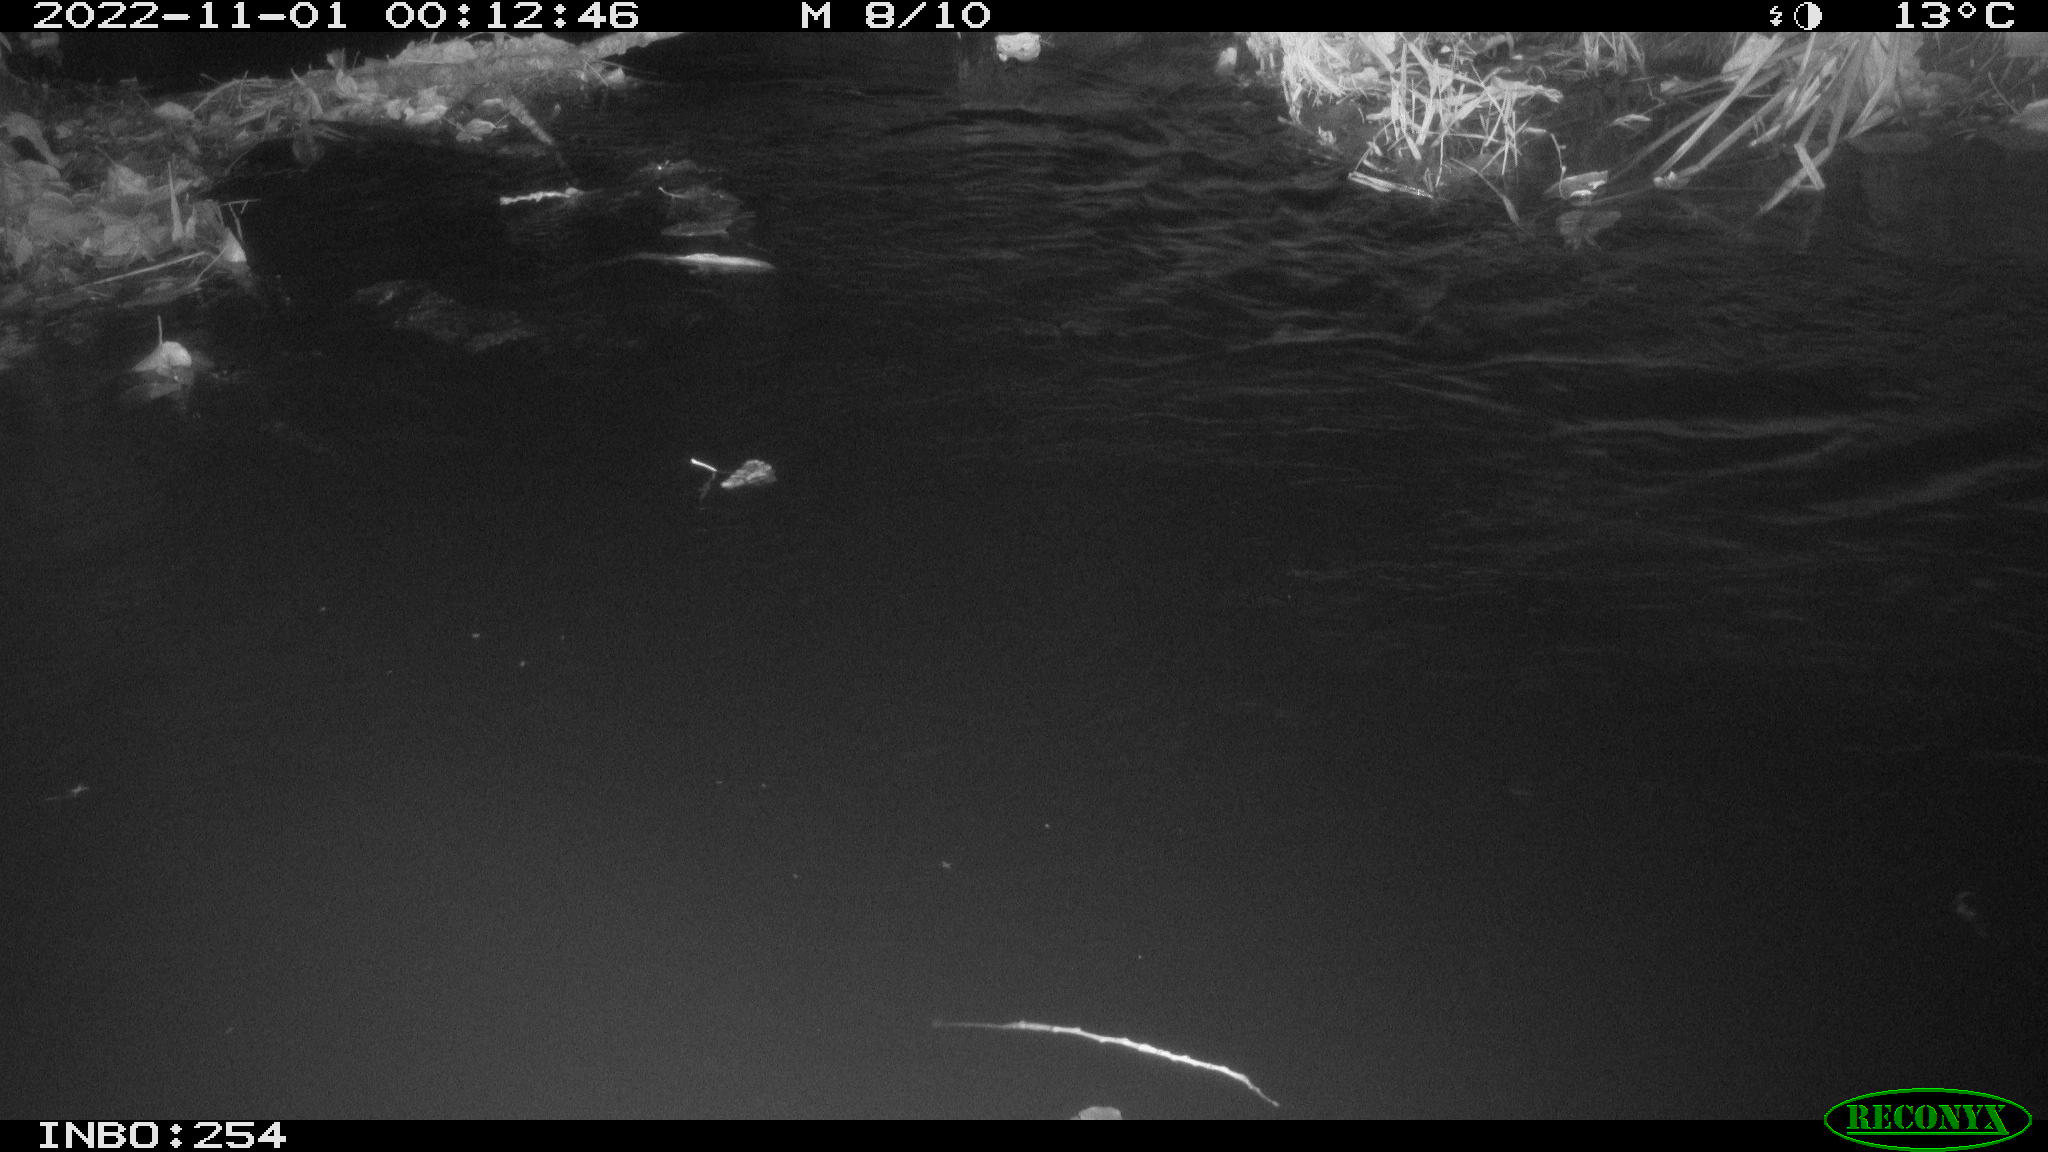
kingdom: Animalia
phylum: Chordata
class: Aves
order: Anseriformes
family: Anatidae
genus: Anas
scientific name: Anas
